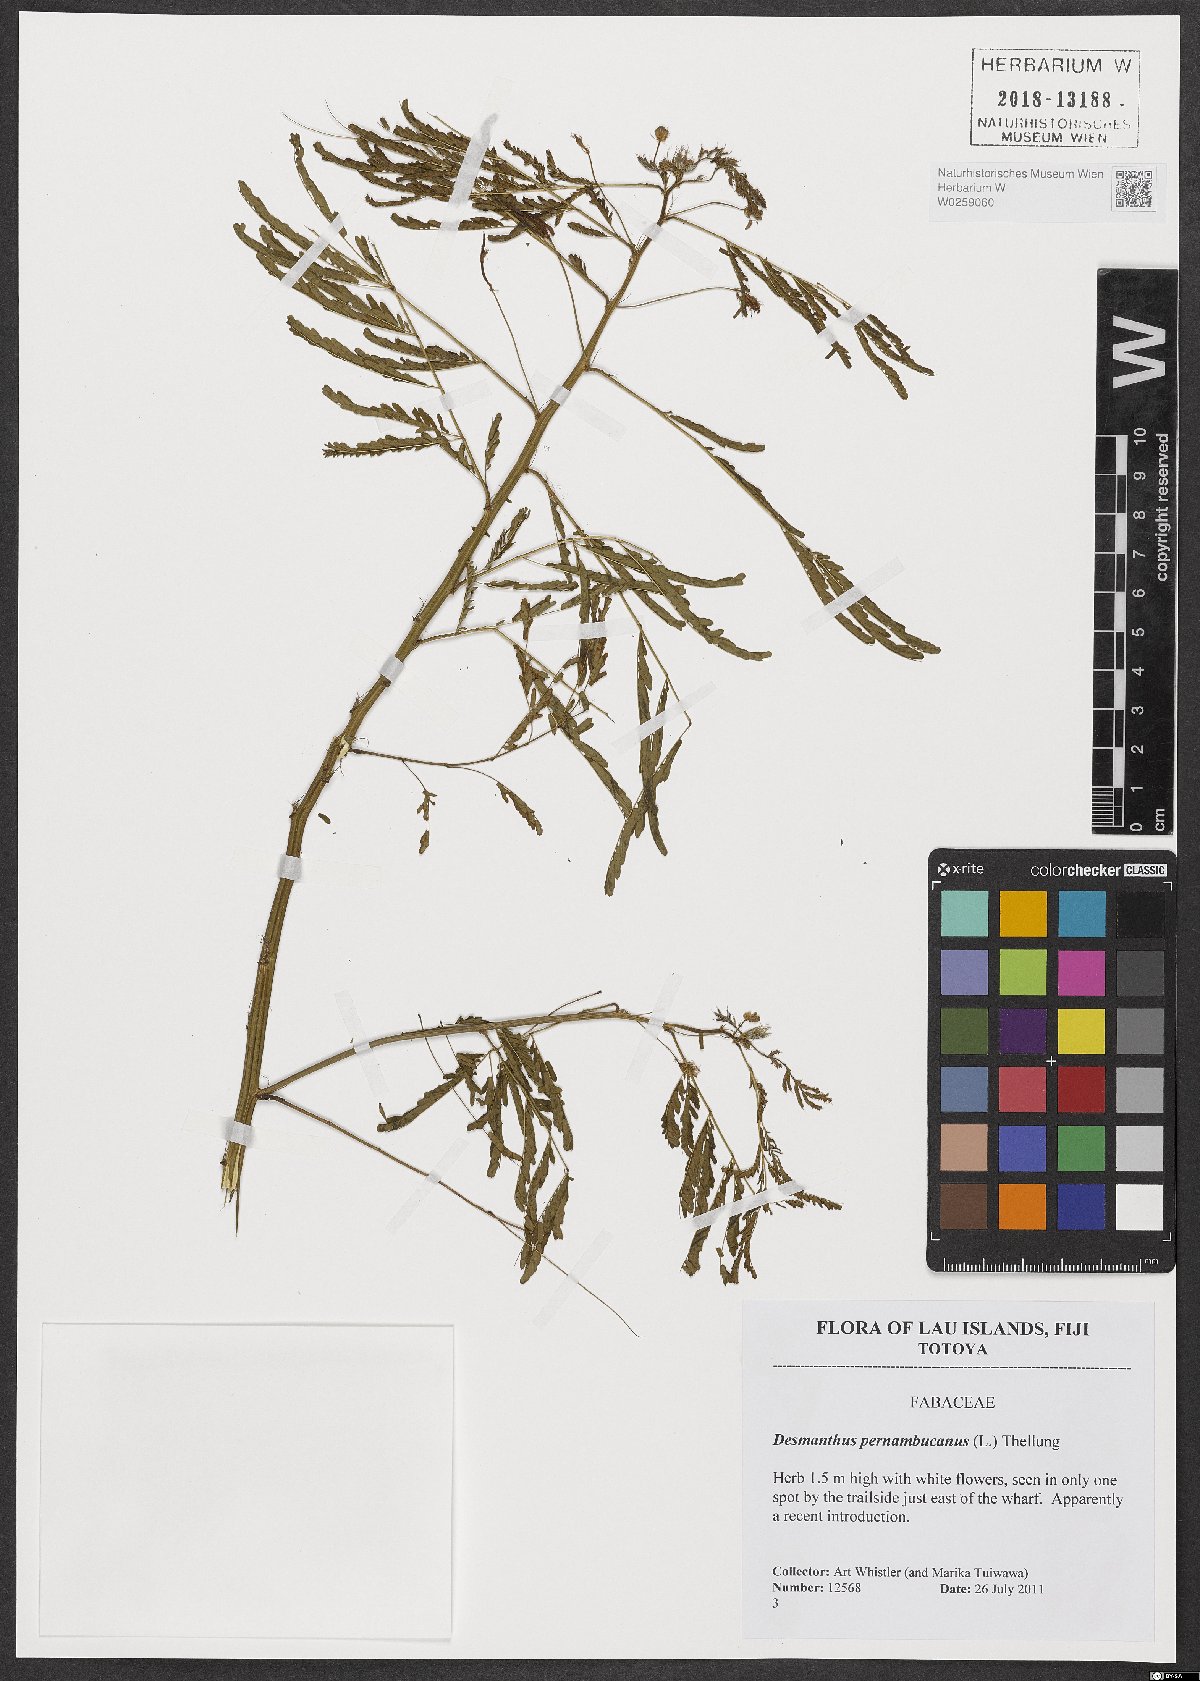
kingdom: Plantae
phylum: Tracheophyta
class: Magnoliopsida
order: Fabales
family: Fabaceae
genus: Desmanthus
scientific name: Desmanthus pernambucanus
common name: Pigeon bundleflower
